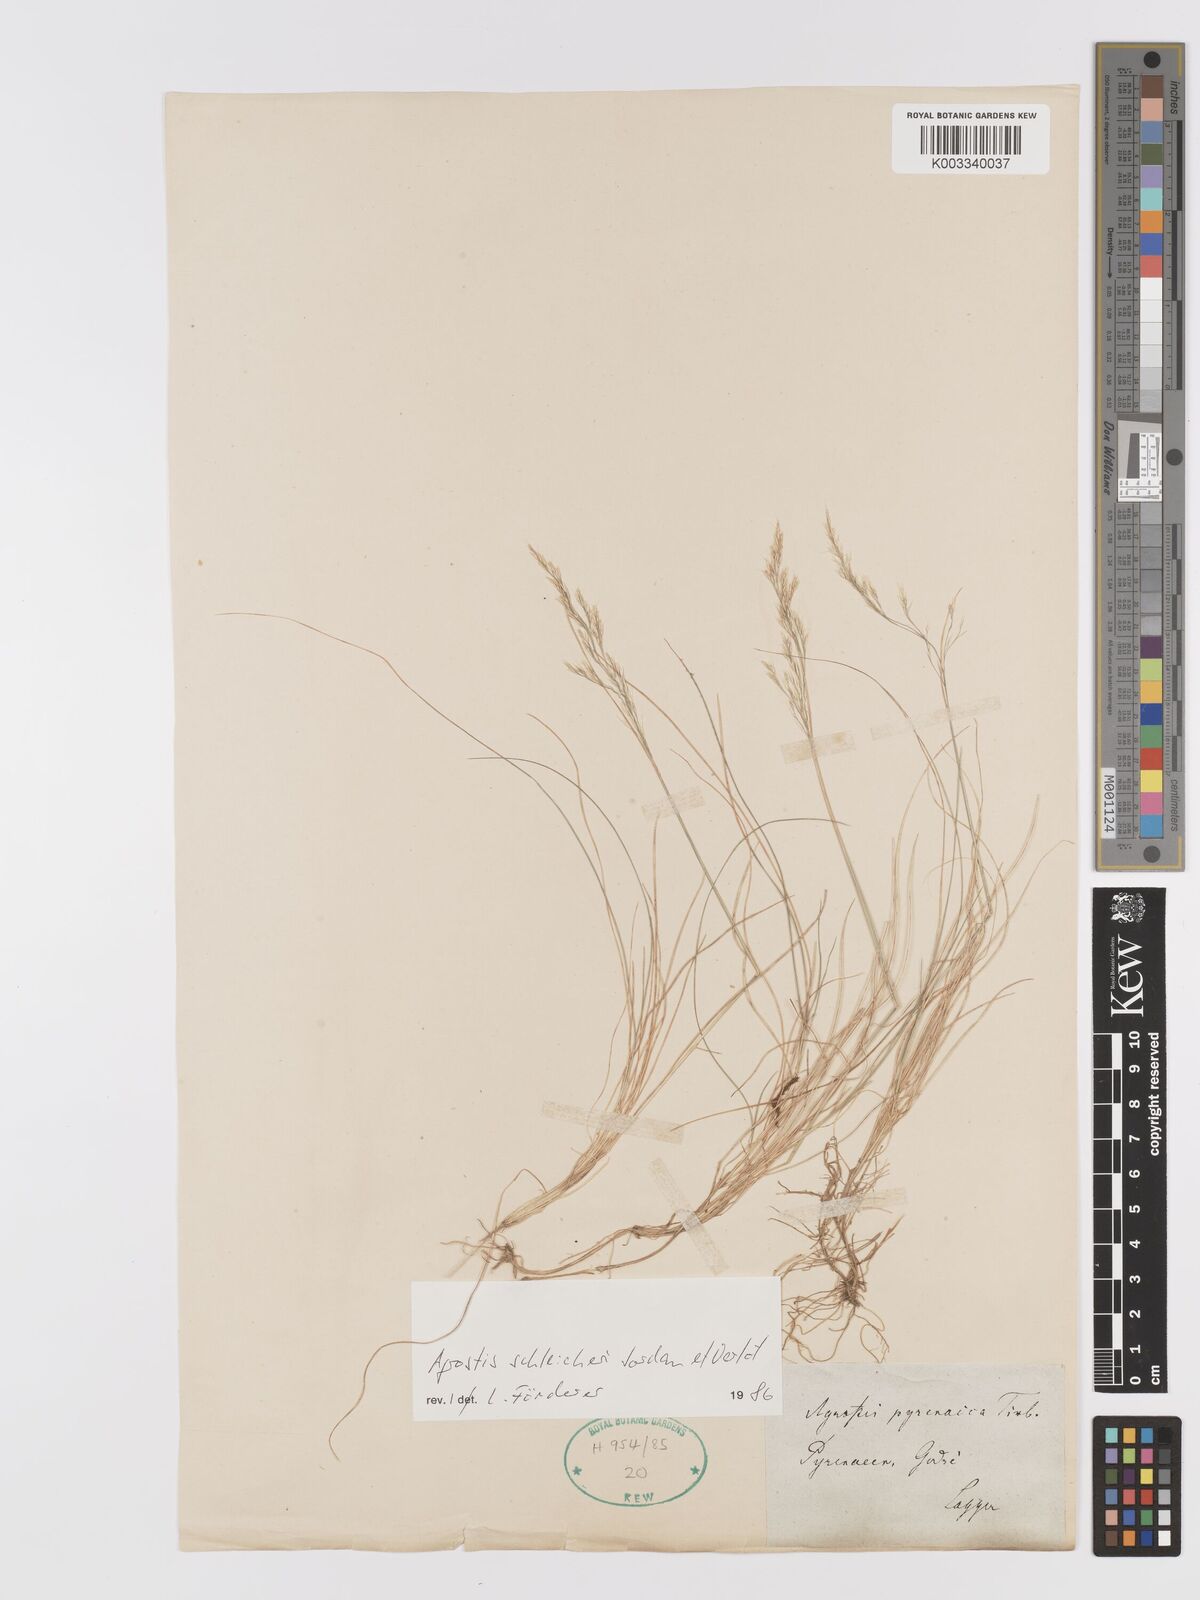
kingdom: Plantae
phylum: Tracheophyta
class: Liliopsida
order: Poales
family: Poaceae
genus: Alpagrostis
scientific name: Alpagrostis schleicheri
